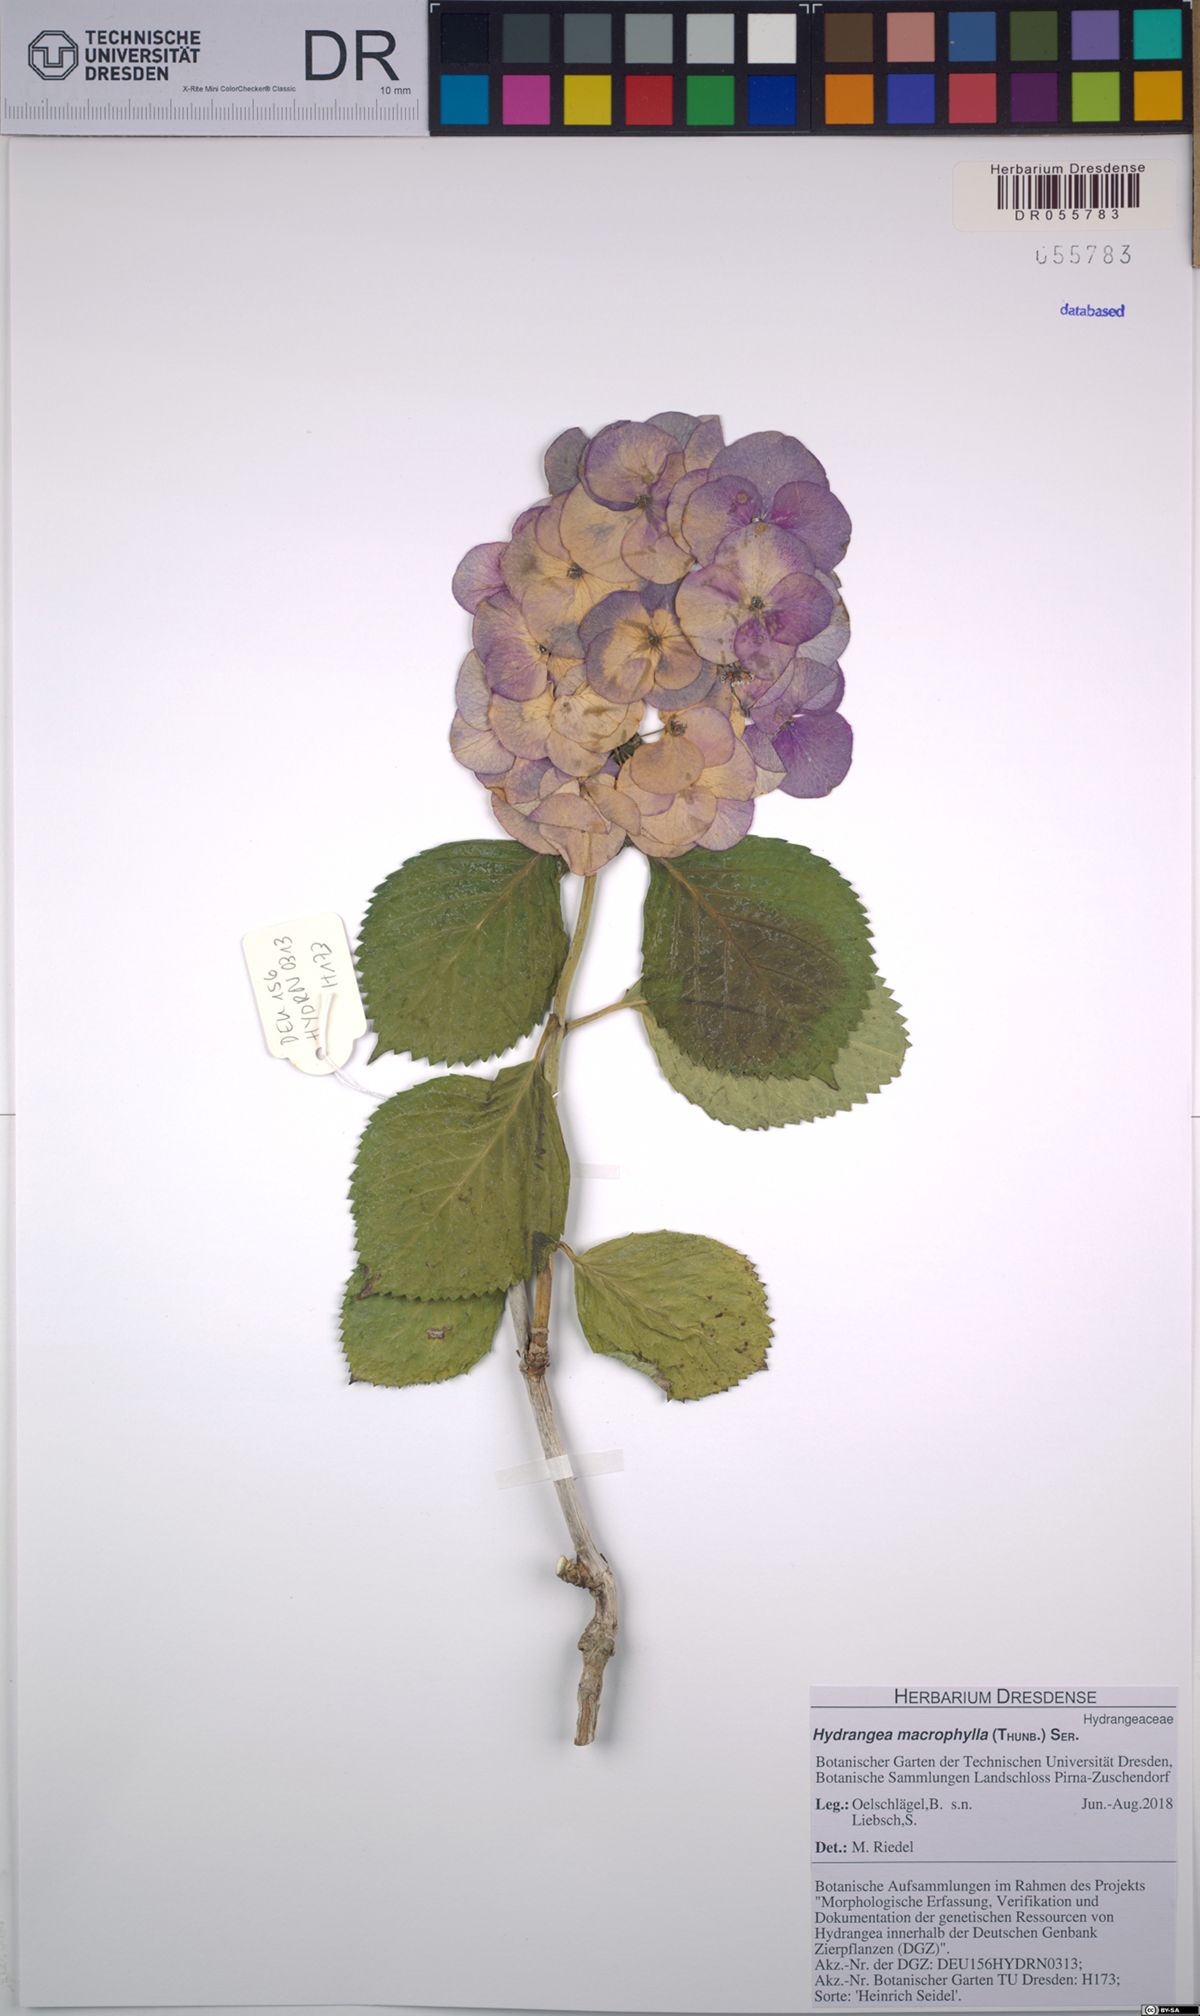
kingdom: Plantae
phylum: Tracheophyta
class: Magnoliopsida
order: Cornales
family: Hydrangeaceae
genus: Hydrangea
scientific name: Hydrangea macrophylla
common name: Hydrangea
